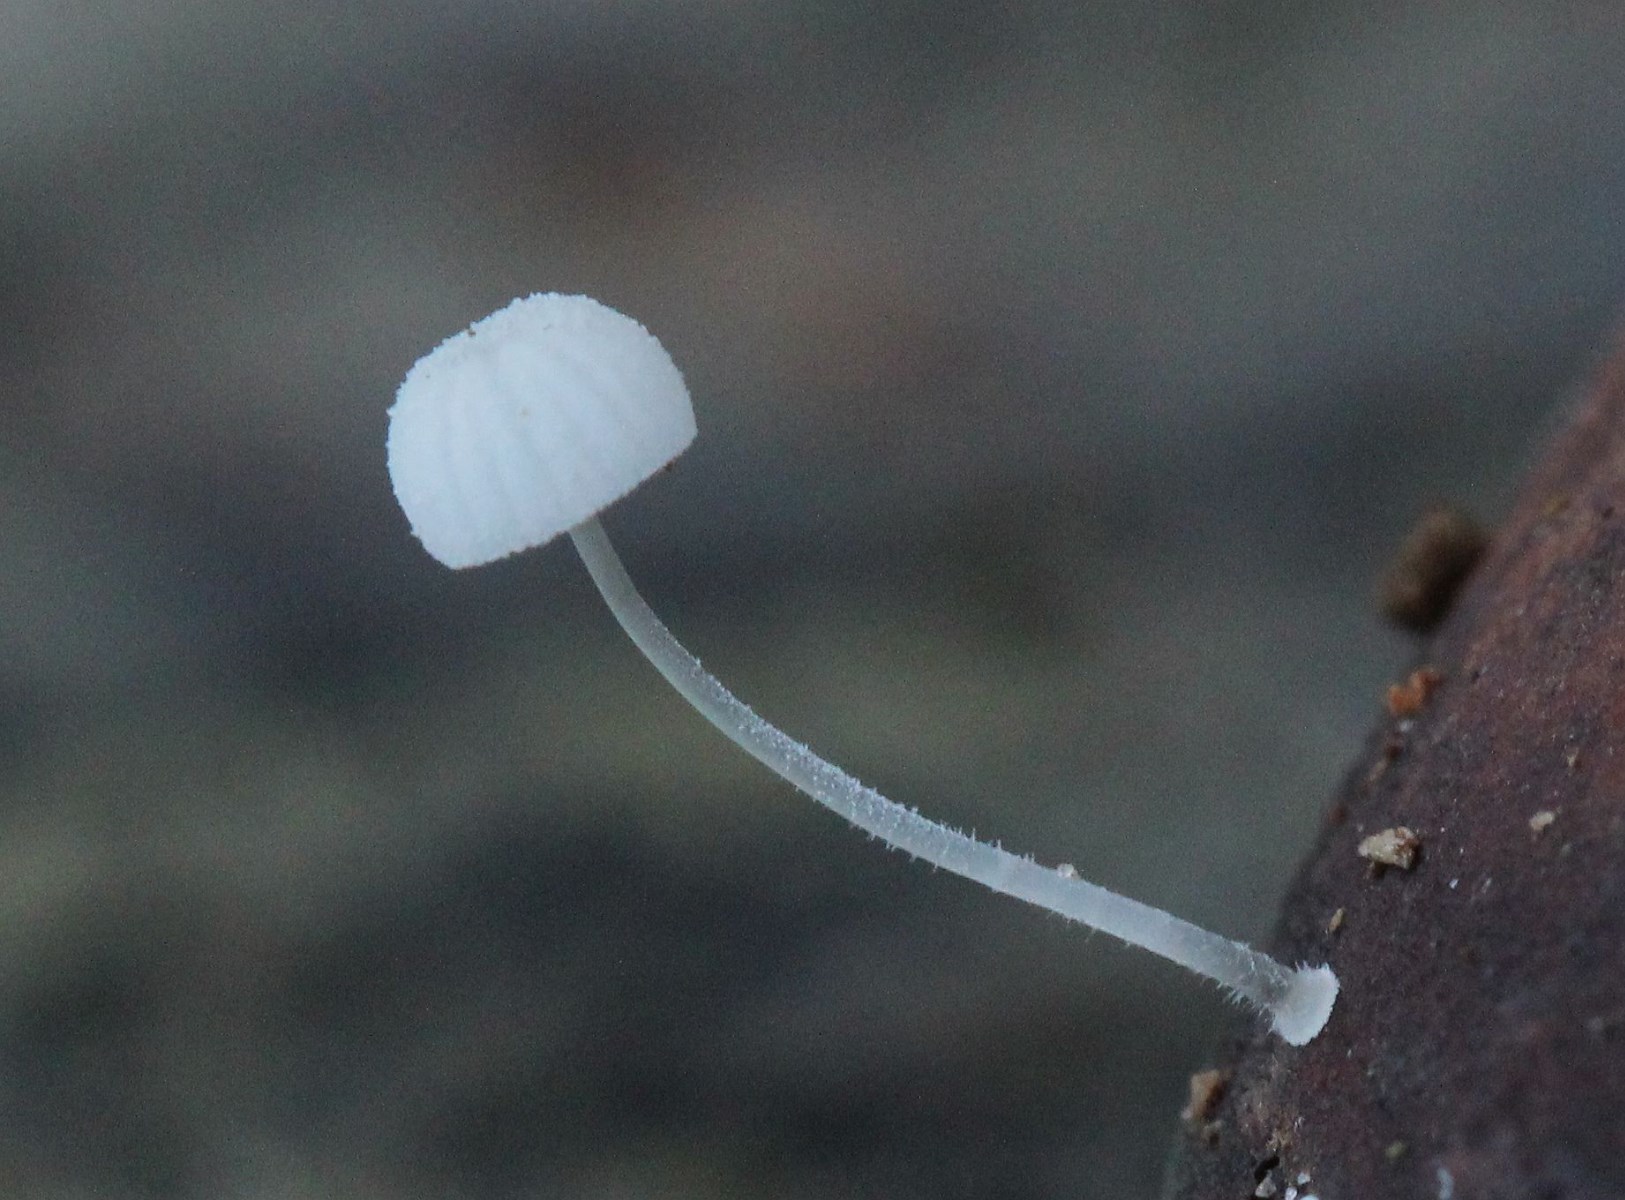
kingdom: Fungi
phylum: Basidiomycota
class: Agaricomycetes
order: Agaricales
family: Mycenaceae
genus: Mycena
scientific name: Mycena tenerrima
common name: pudret huesvamp
